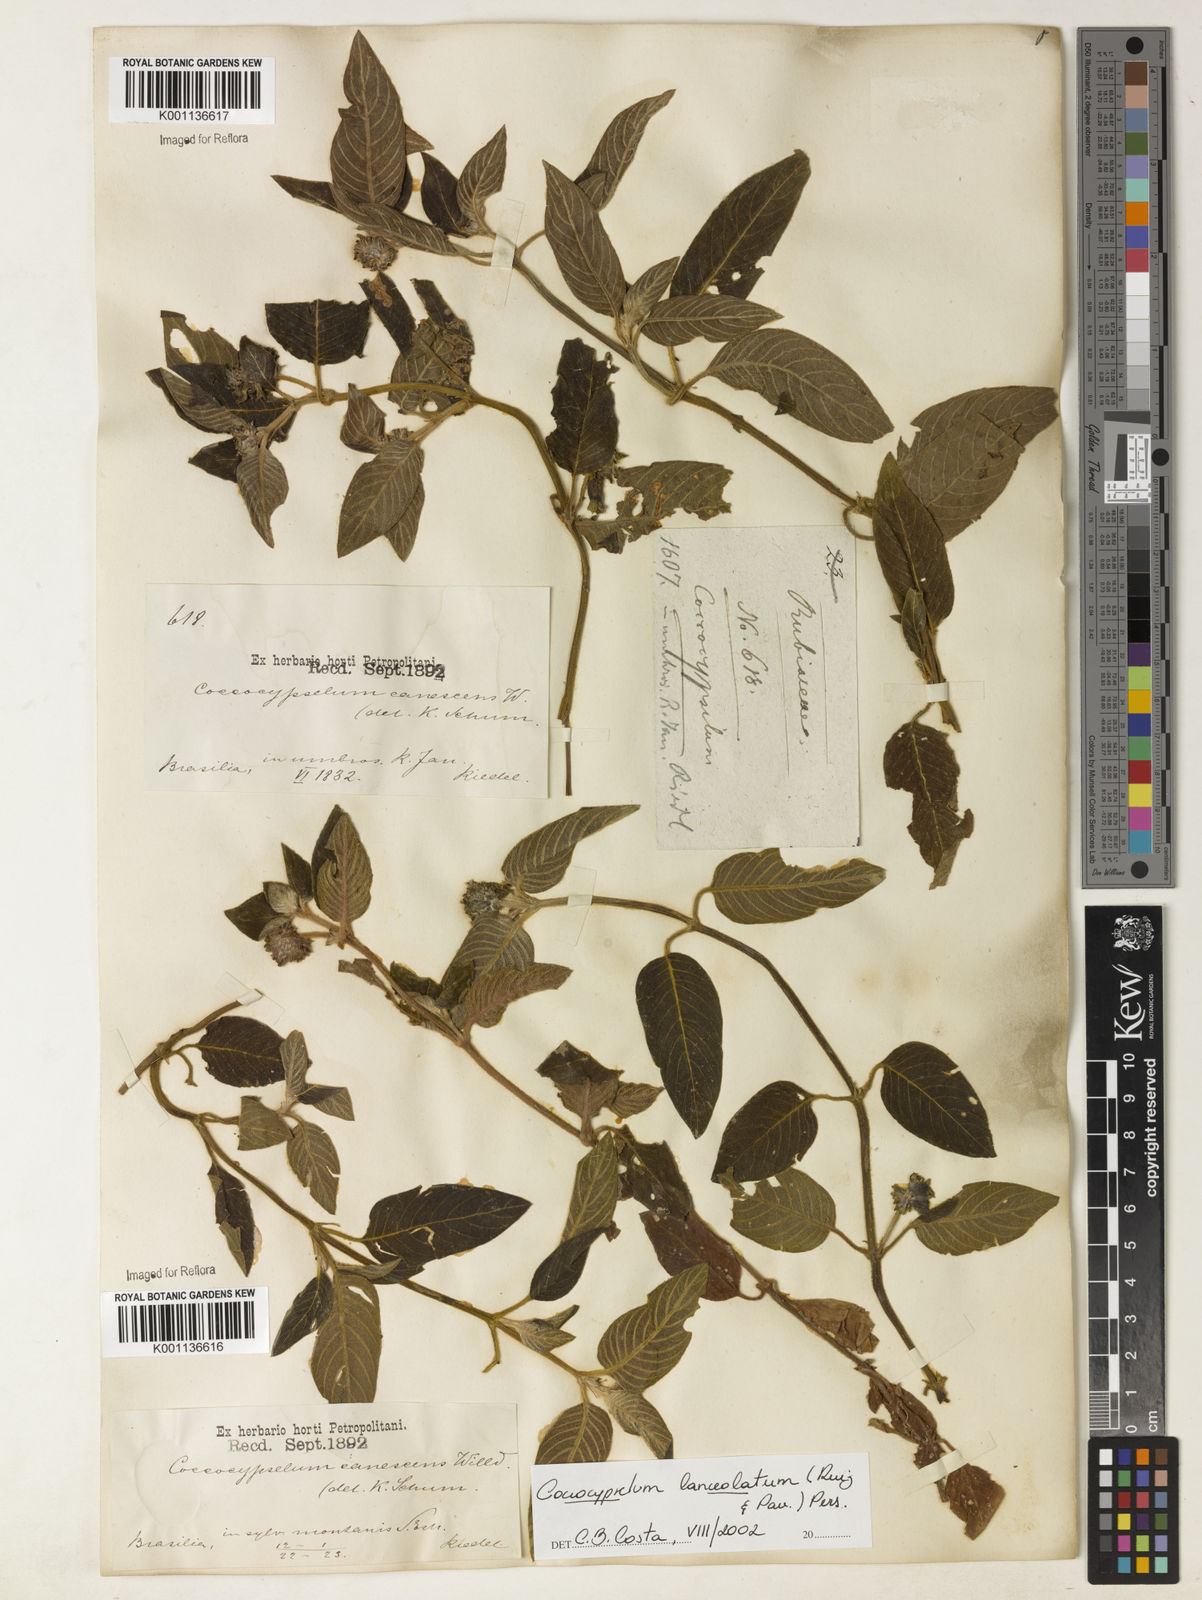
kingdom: Plantae
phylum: Tracheophyta
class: Magnoliopsida
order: Gentianales
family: Rubiaceae
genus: Coccocypselum
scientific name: Coccocypselum lanceolatum
